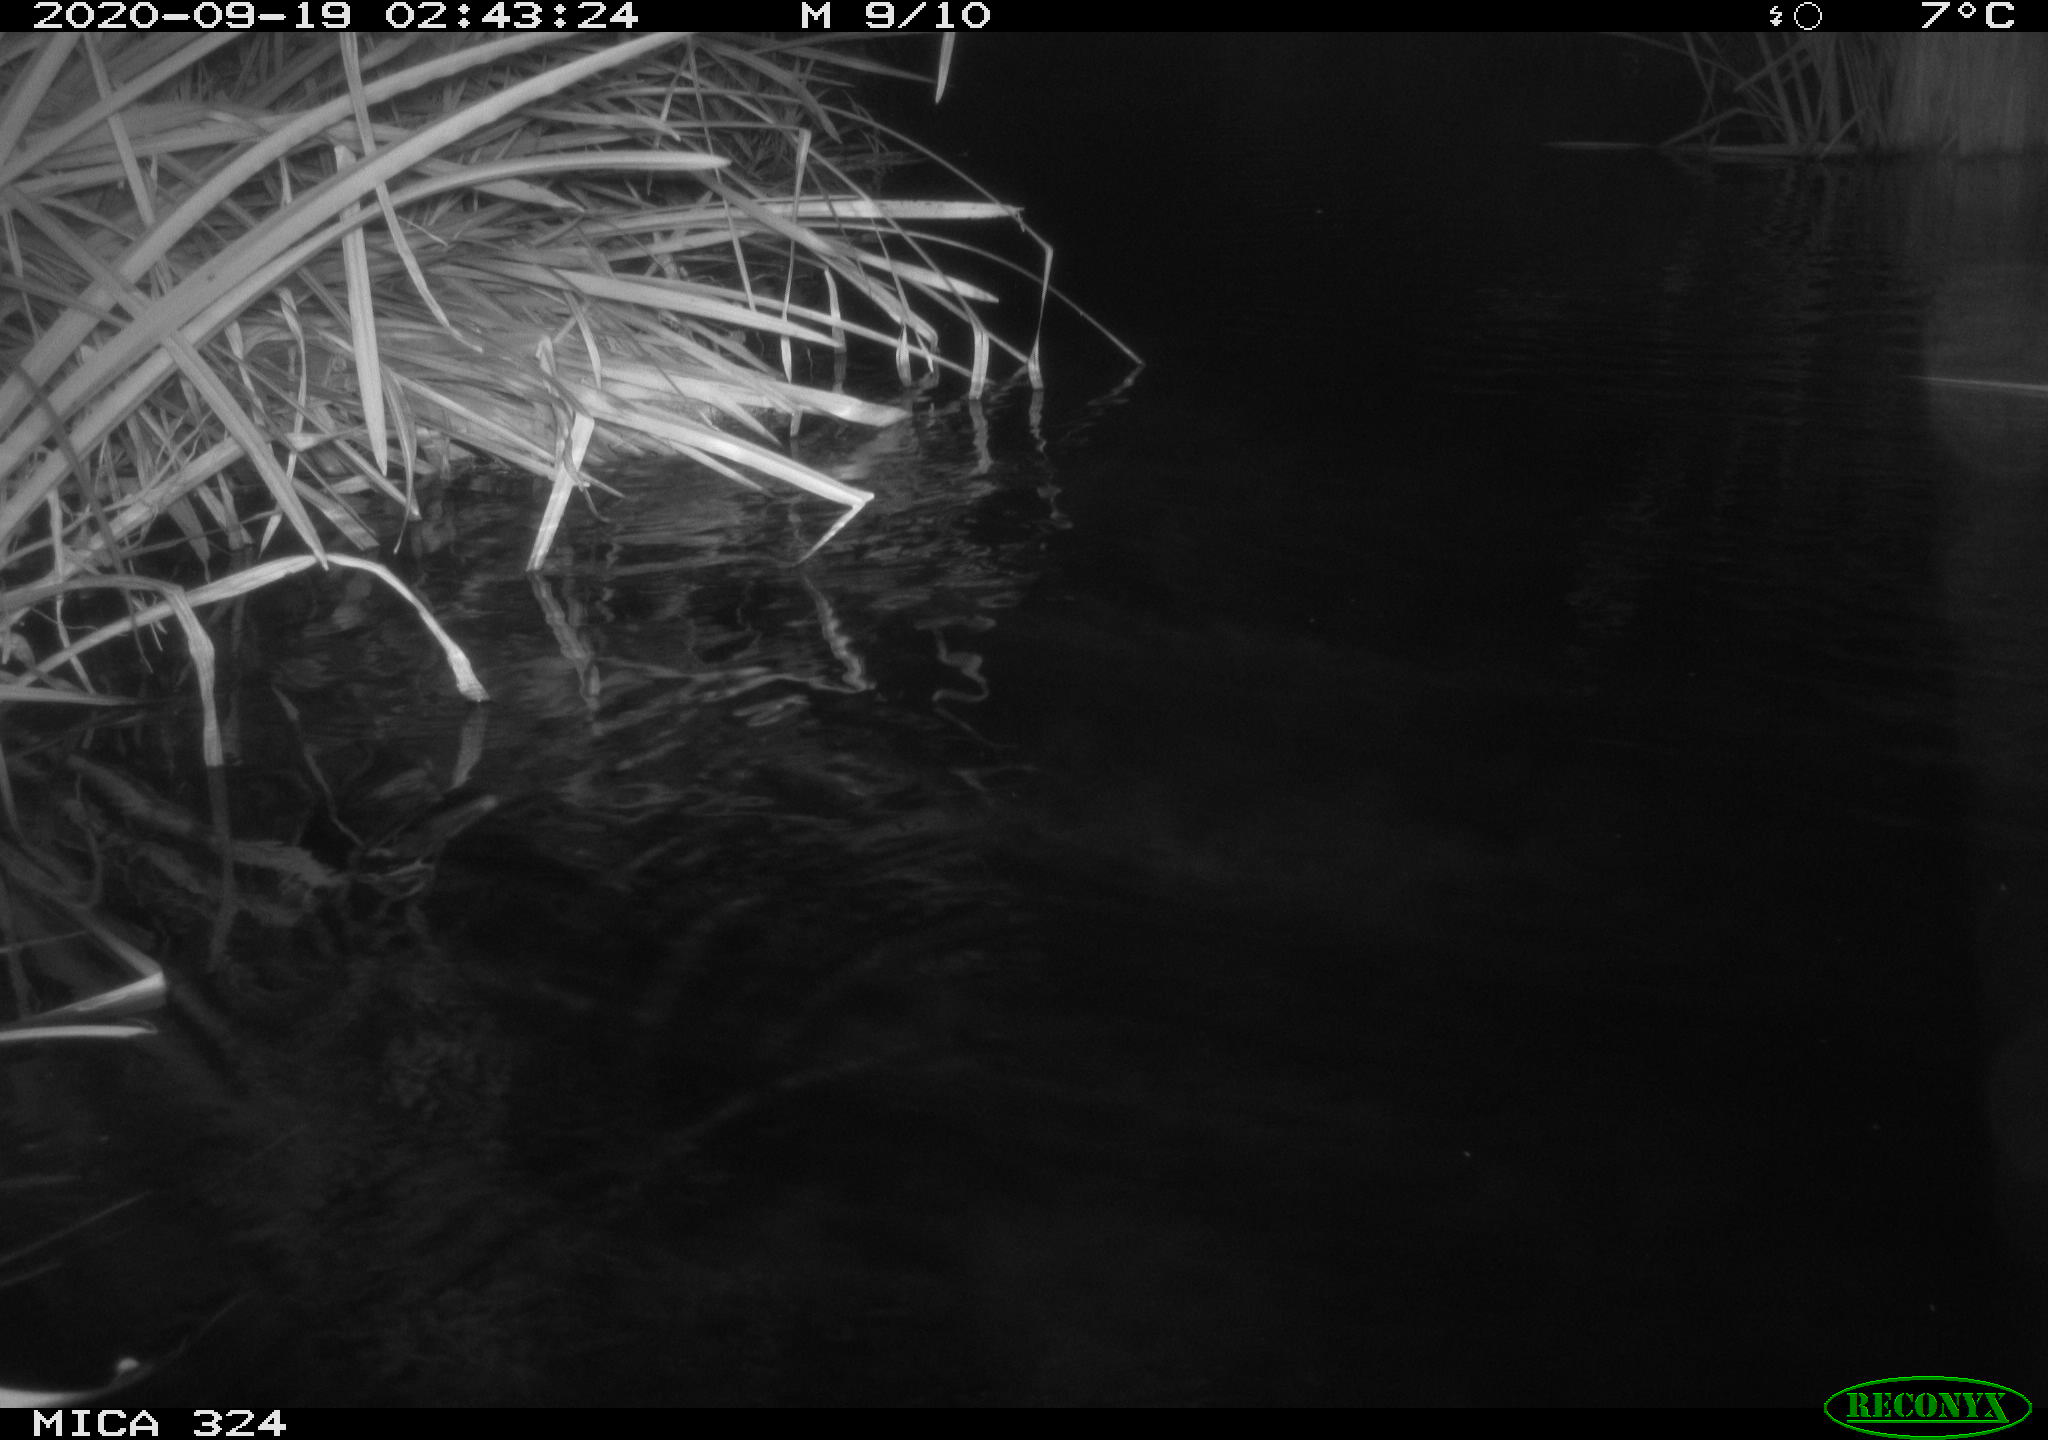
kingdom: Animalia
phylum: Chordata
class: Mammalia
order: Rodentia
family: Myocastoridae
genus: Myocastor
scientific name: Myocastor coypus
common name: Coypu
